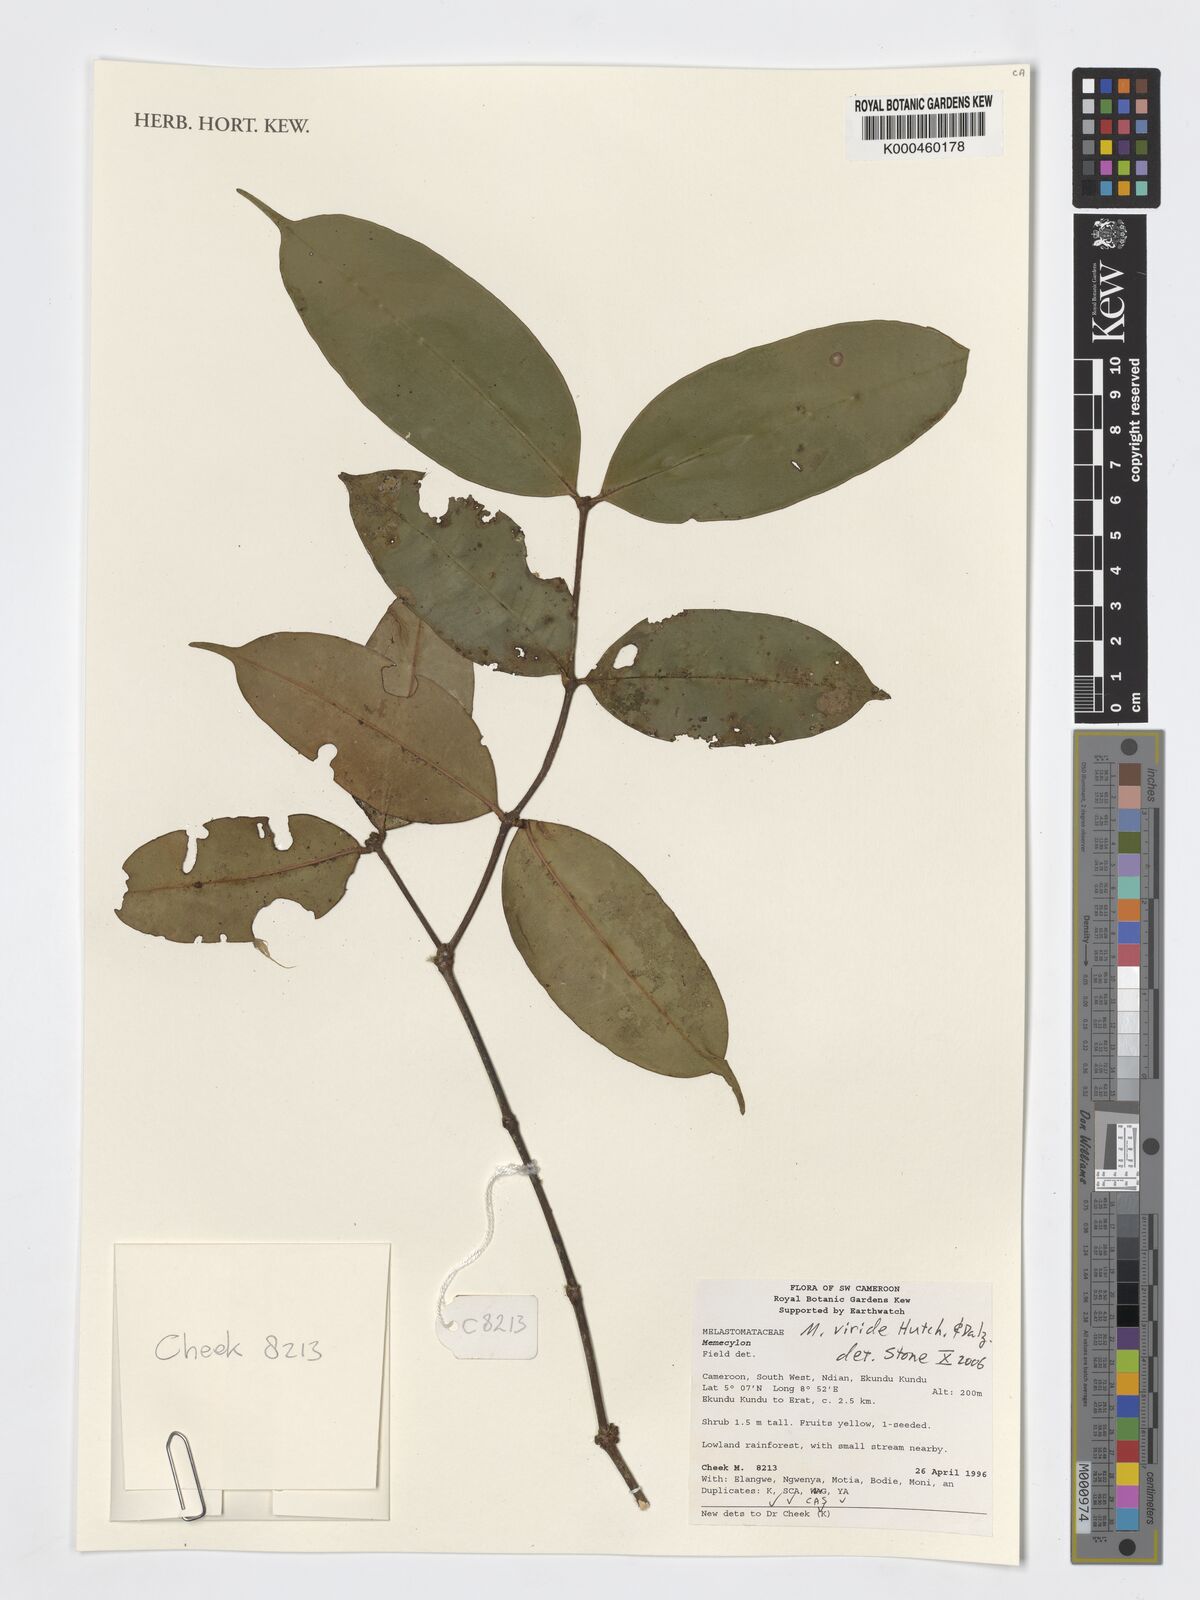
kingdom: Plantae
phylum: Tracheophyta
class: Magnoliopsida
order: Myrtales
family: Melastomataceae
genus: Memecylon
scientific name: Memecylon viride
